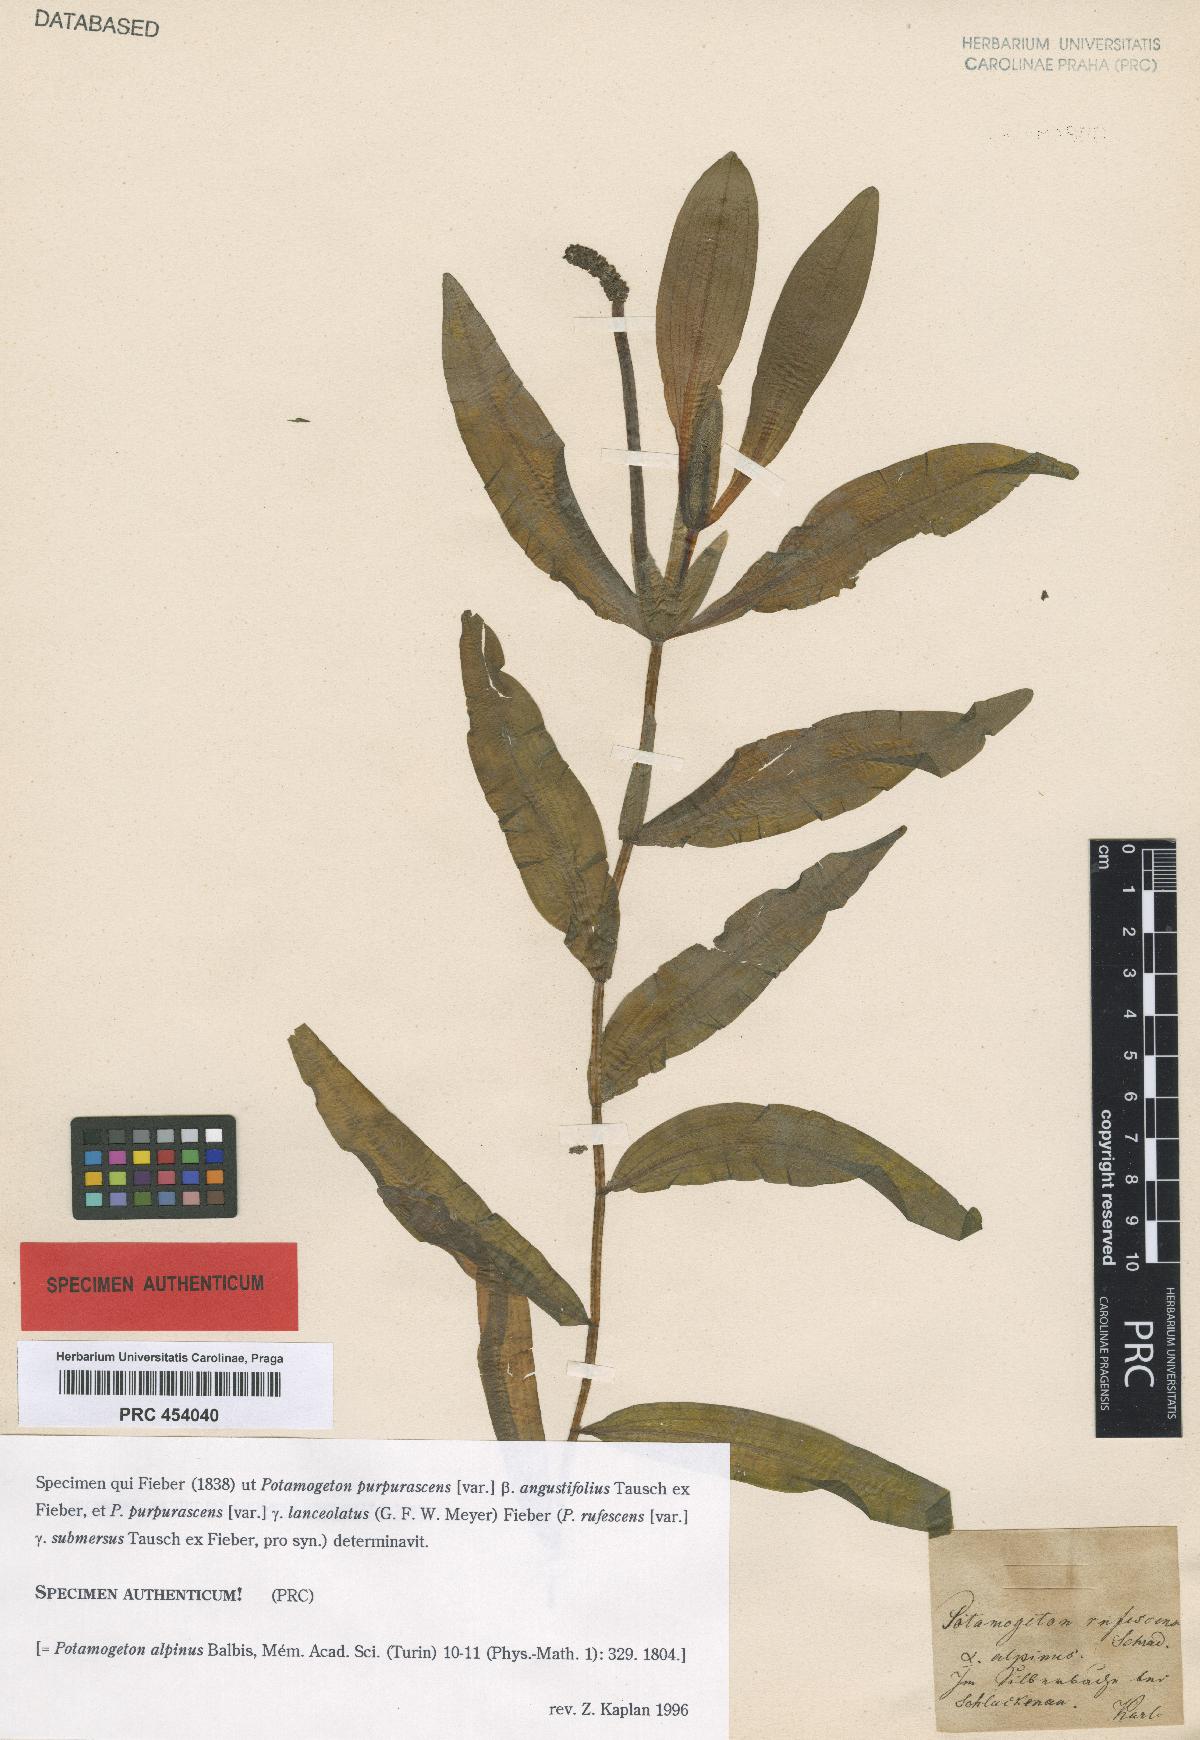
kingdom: Plantae
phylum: Tracheophyta
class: Liliopsida
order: Alismatales
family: Potamogetonaceae
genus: Potamogeton
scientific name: Potamogeton alpinus
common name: Red pondweed
